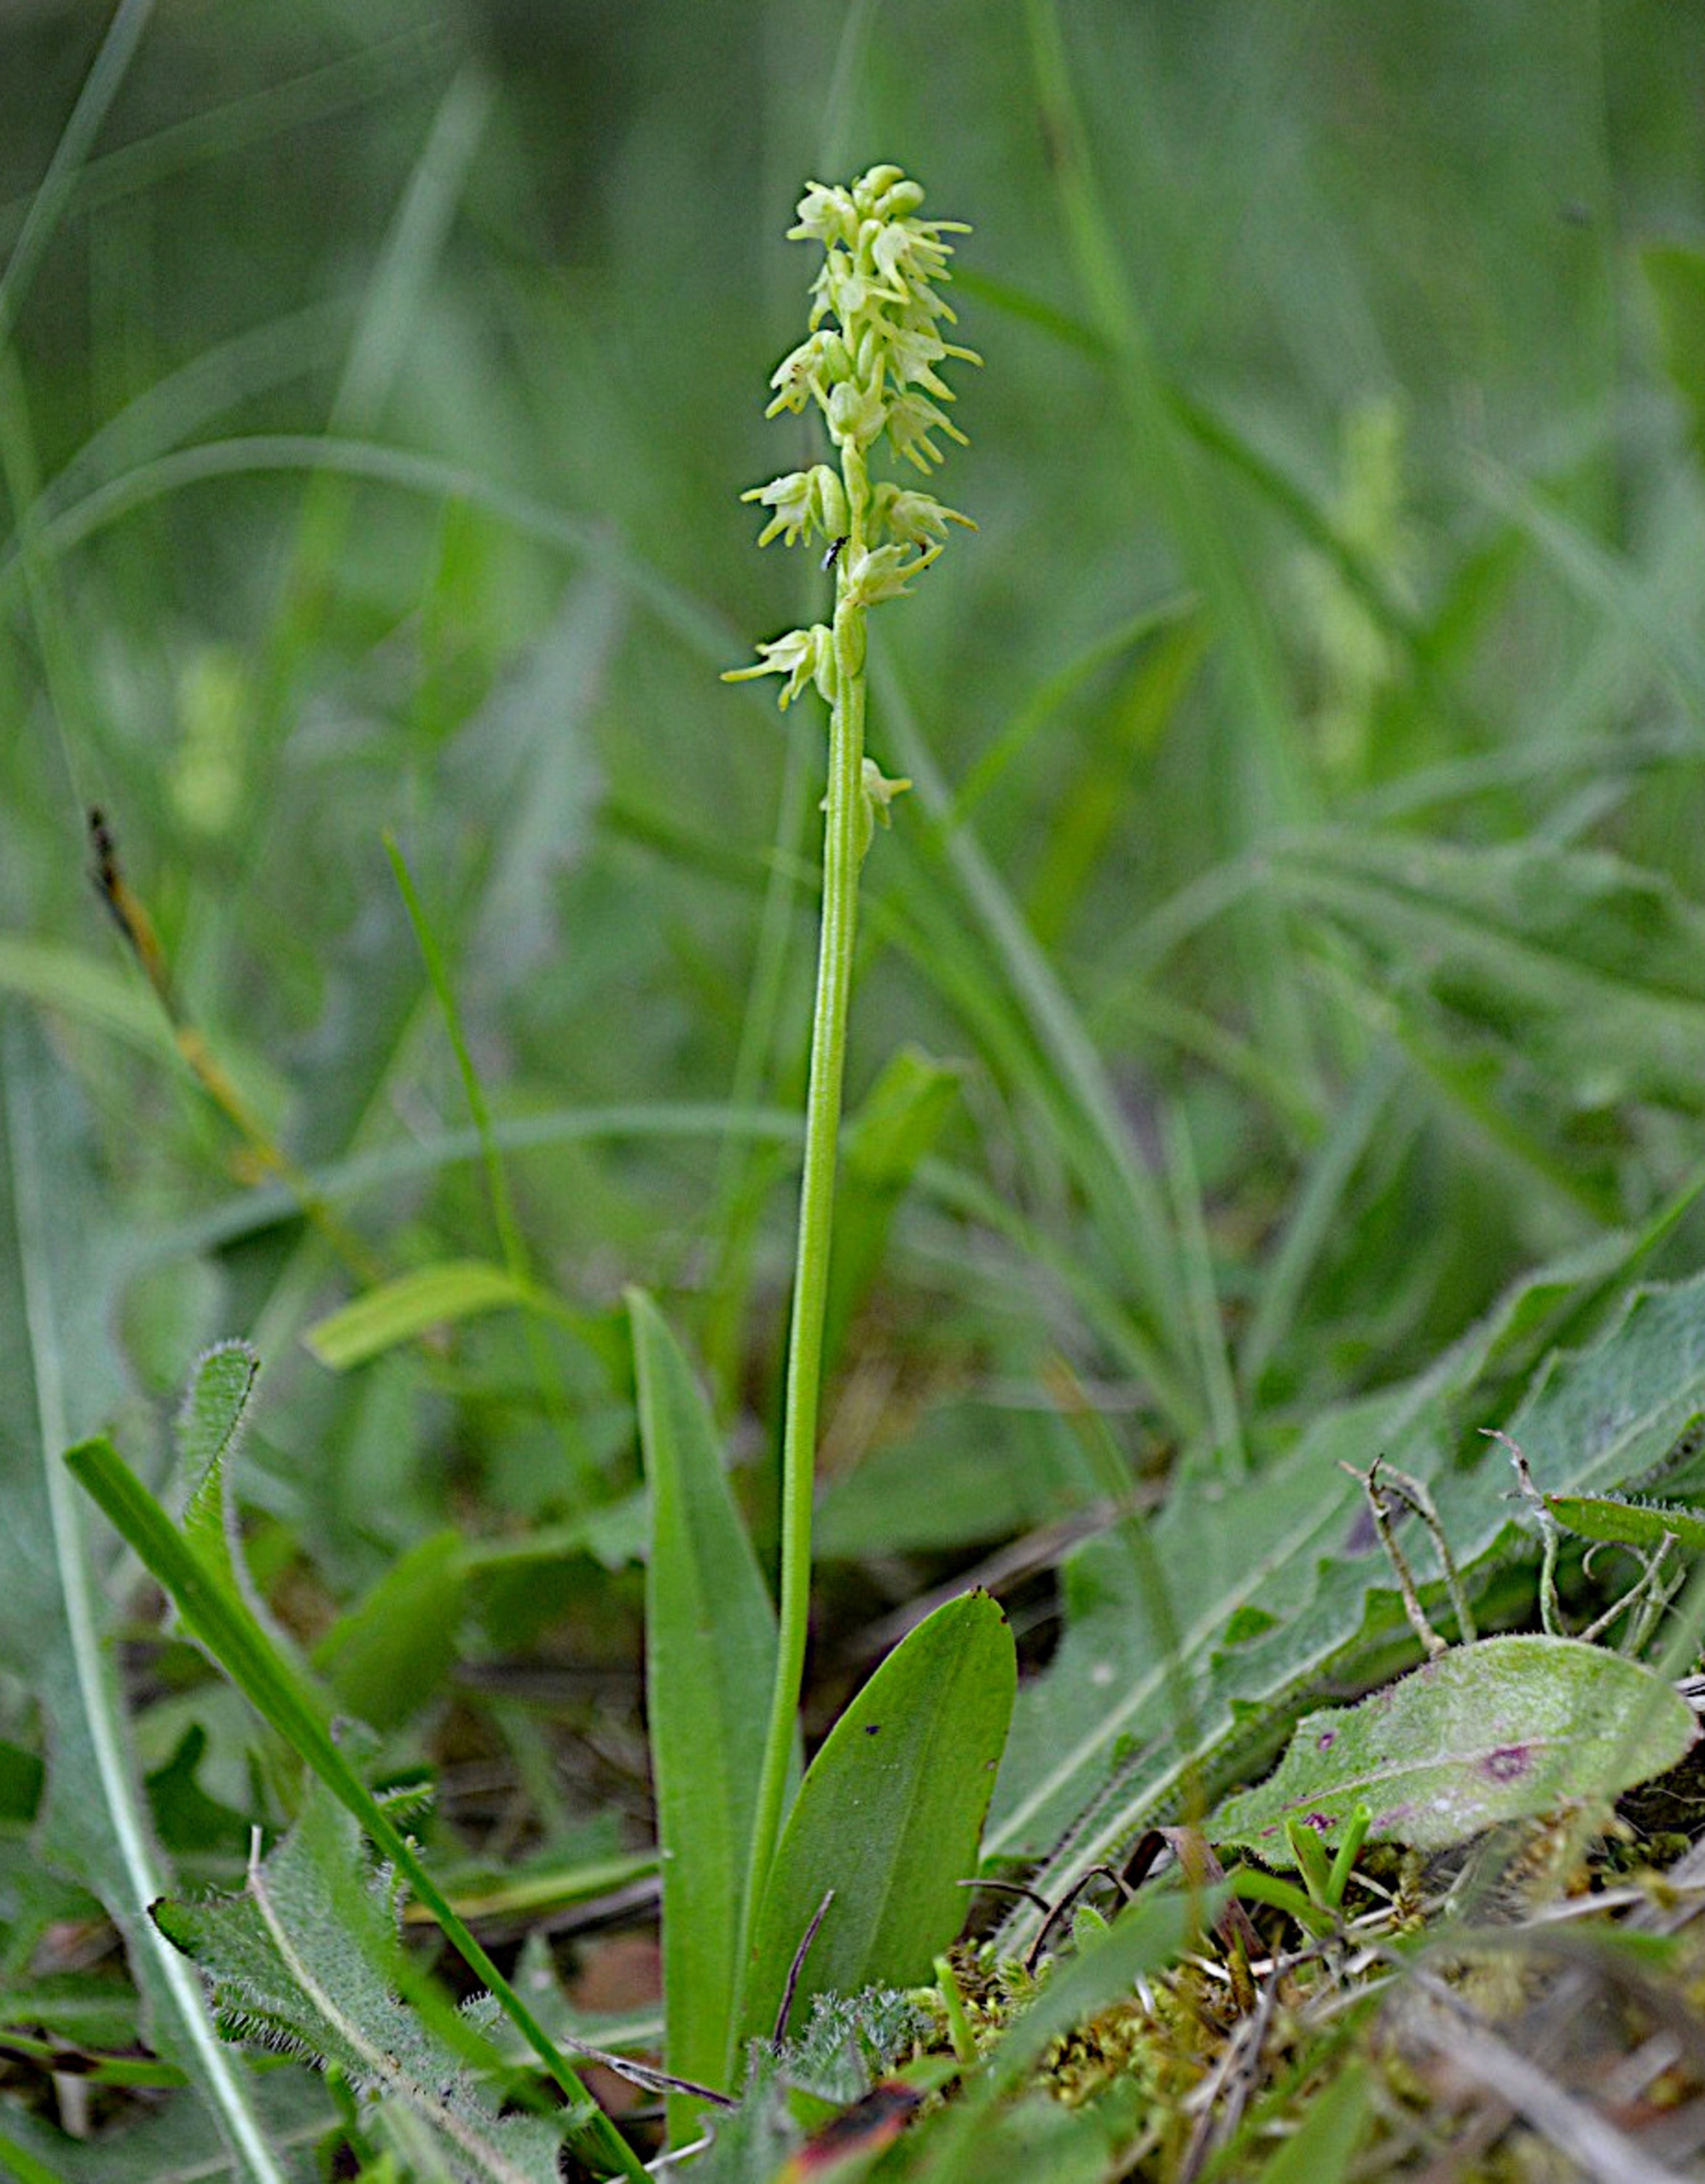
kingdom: Plantae
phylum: Tracheophyta
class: Liliopsida
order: Asparagales
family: Orchidaceae
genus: Herminium
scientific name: Herminium monorchis
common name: Pukkellæbe
